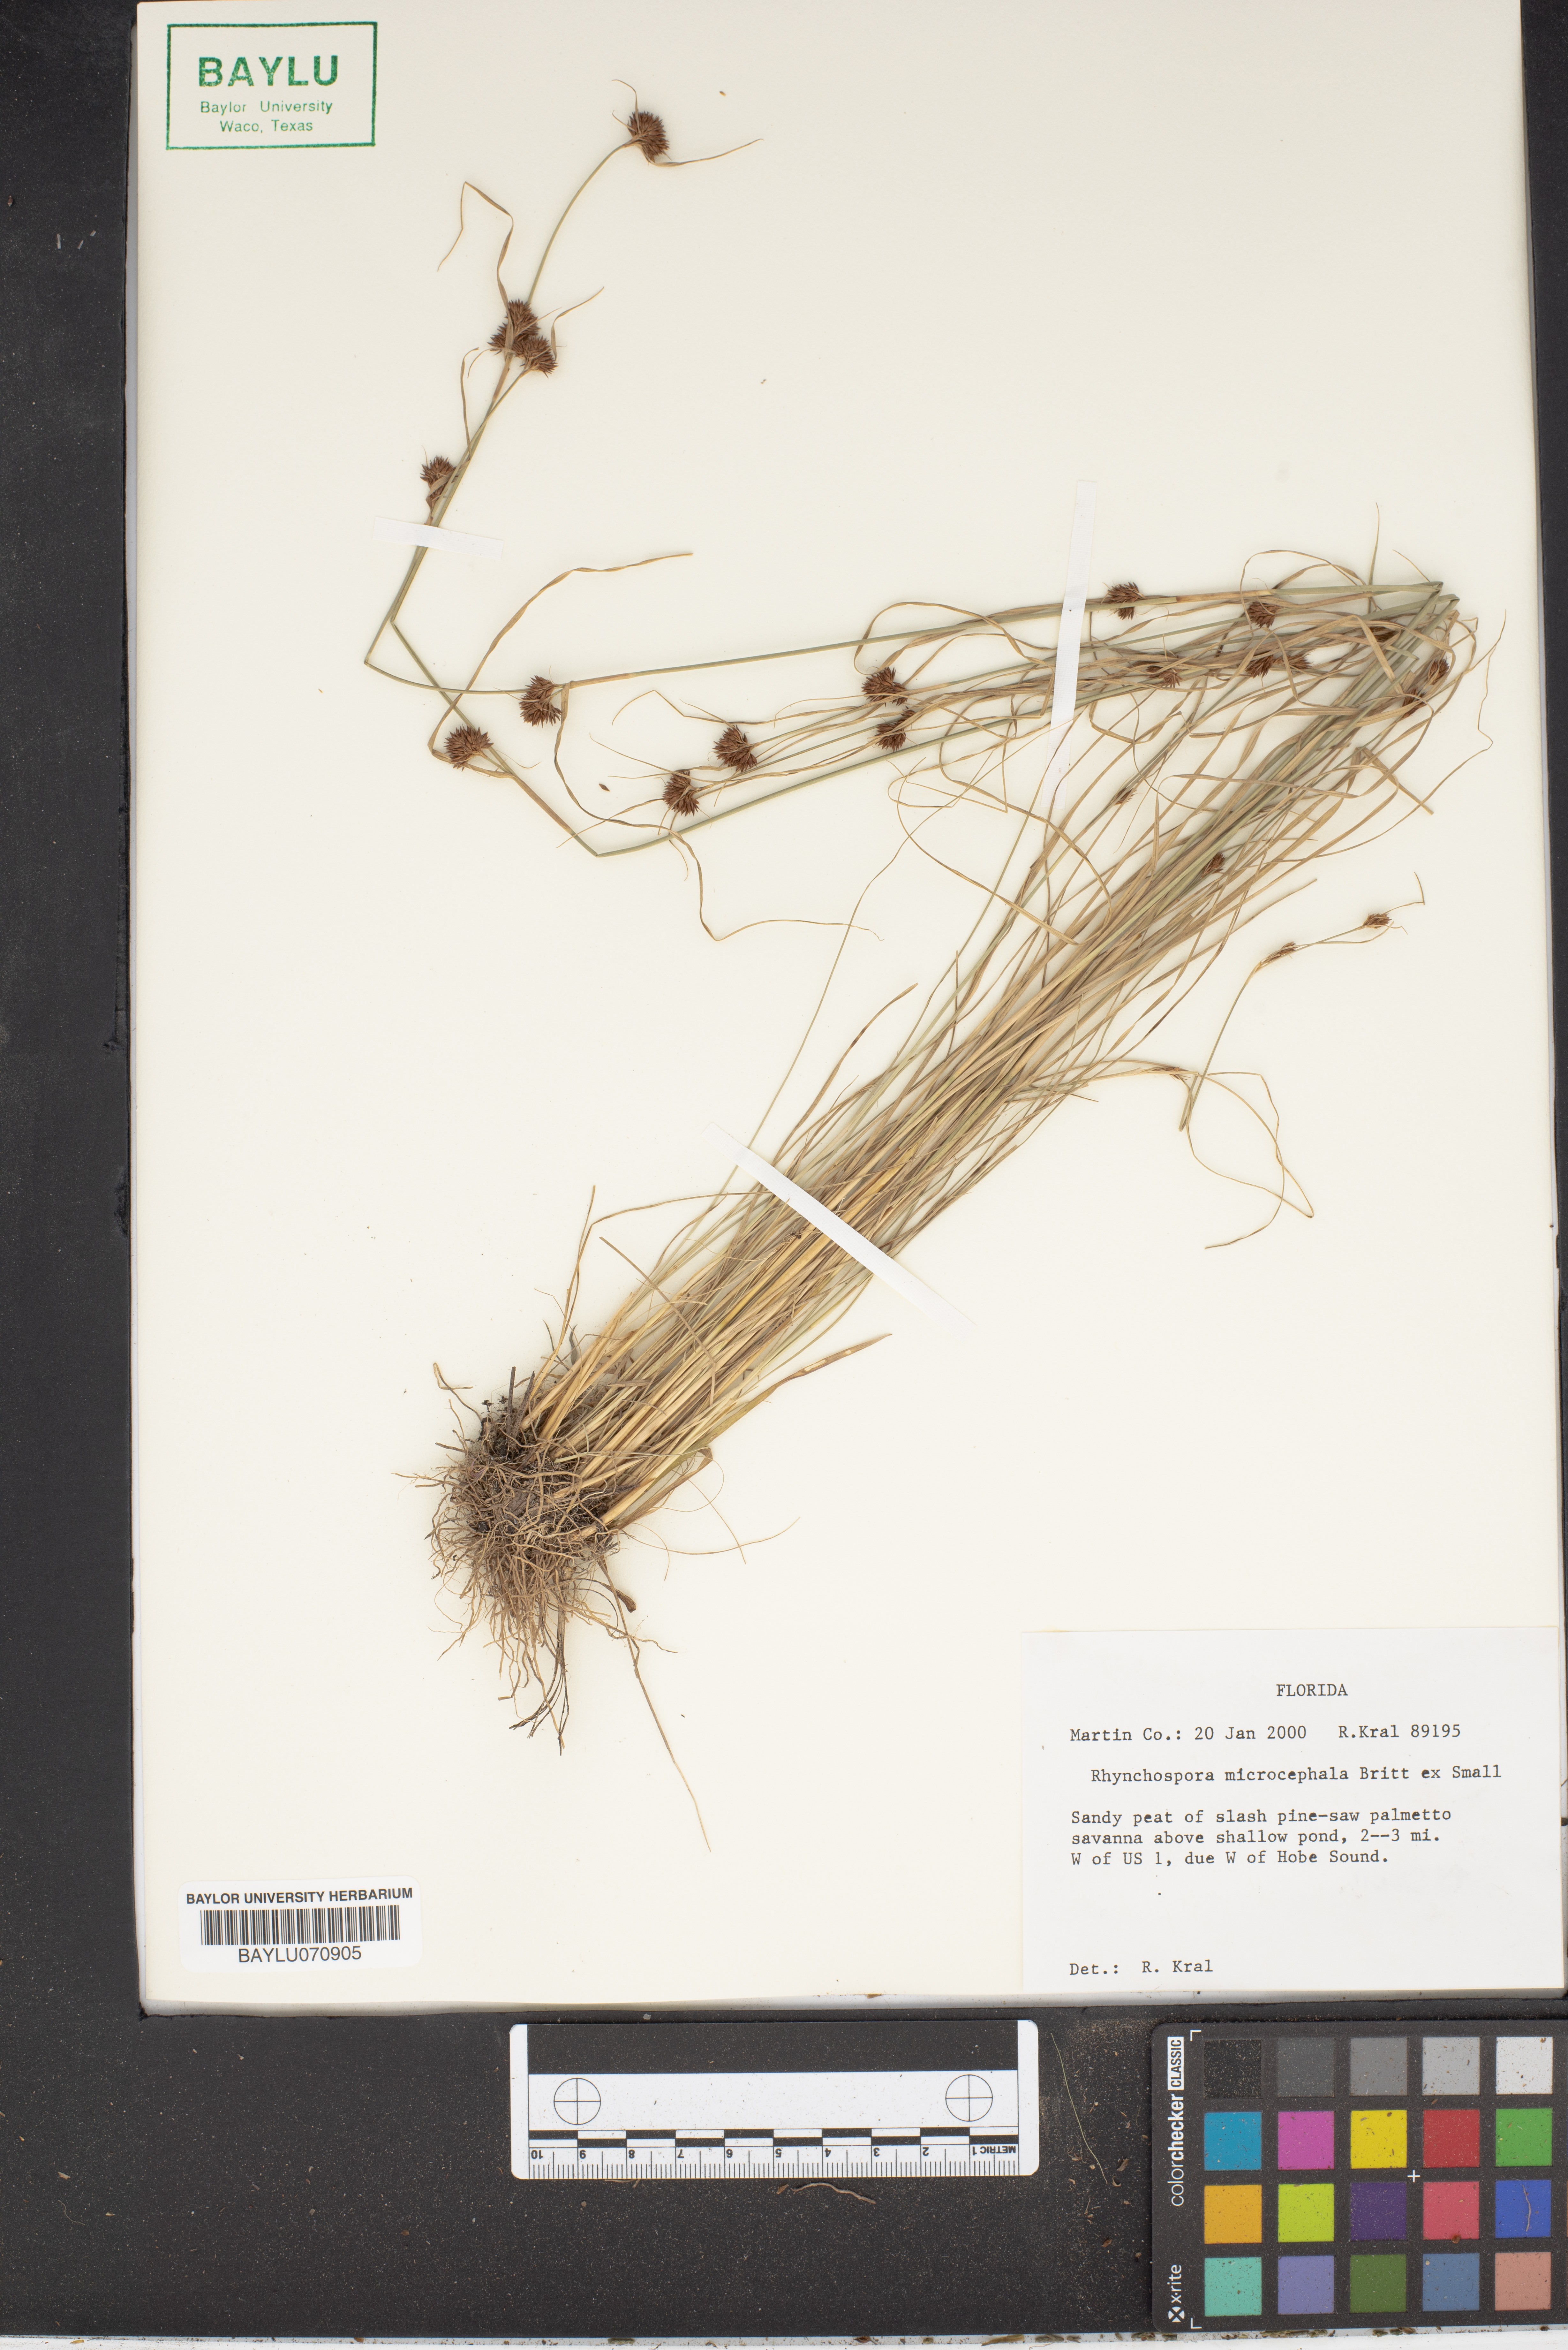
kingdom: Plantae
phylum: Tracheophyta
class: Liliopsida
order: Poales
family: Cyperaceae
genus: Rhynchospora
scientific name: Rhynchospora microcephala
